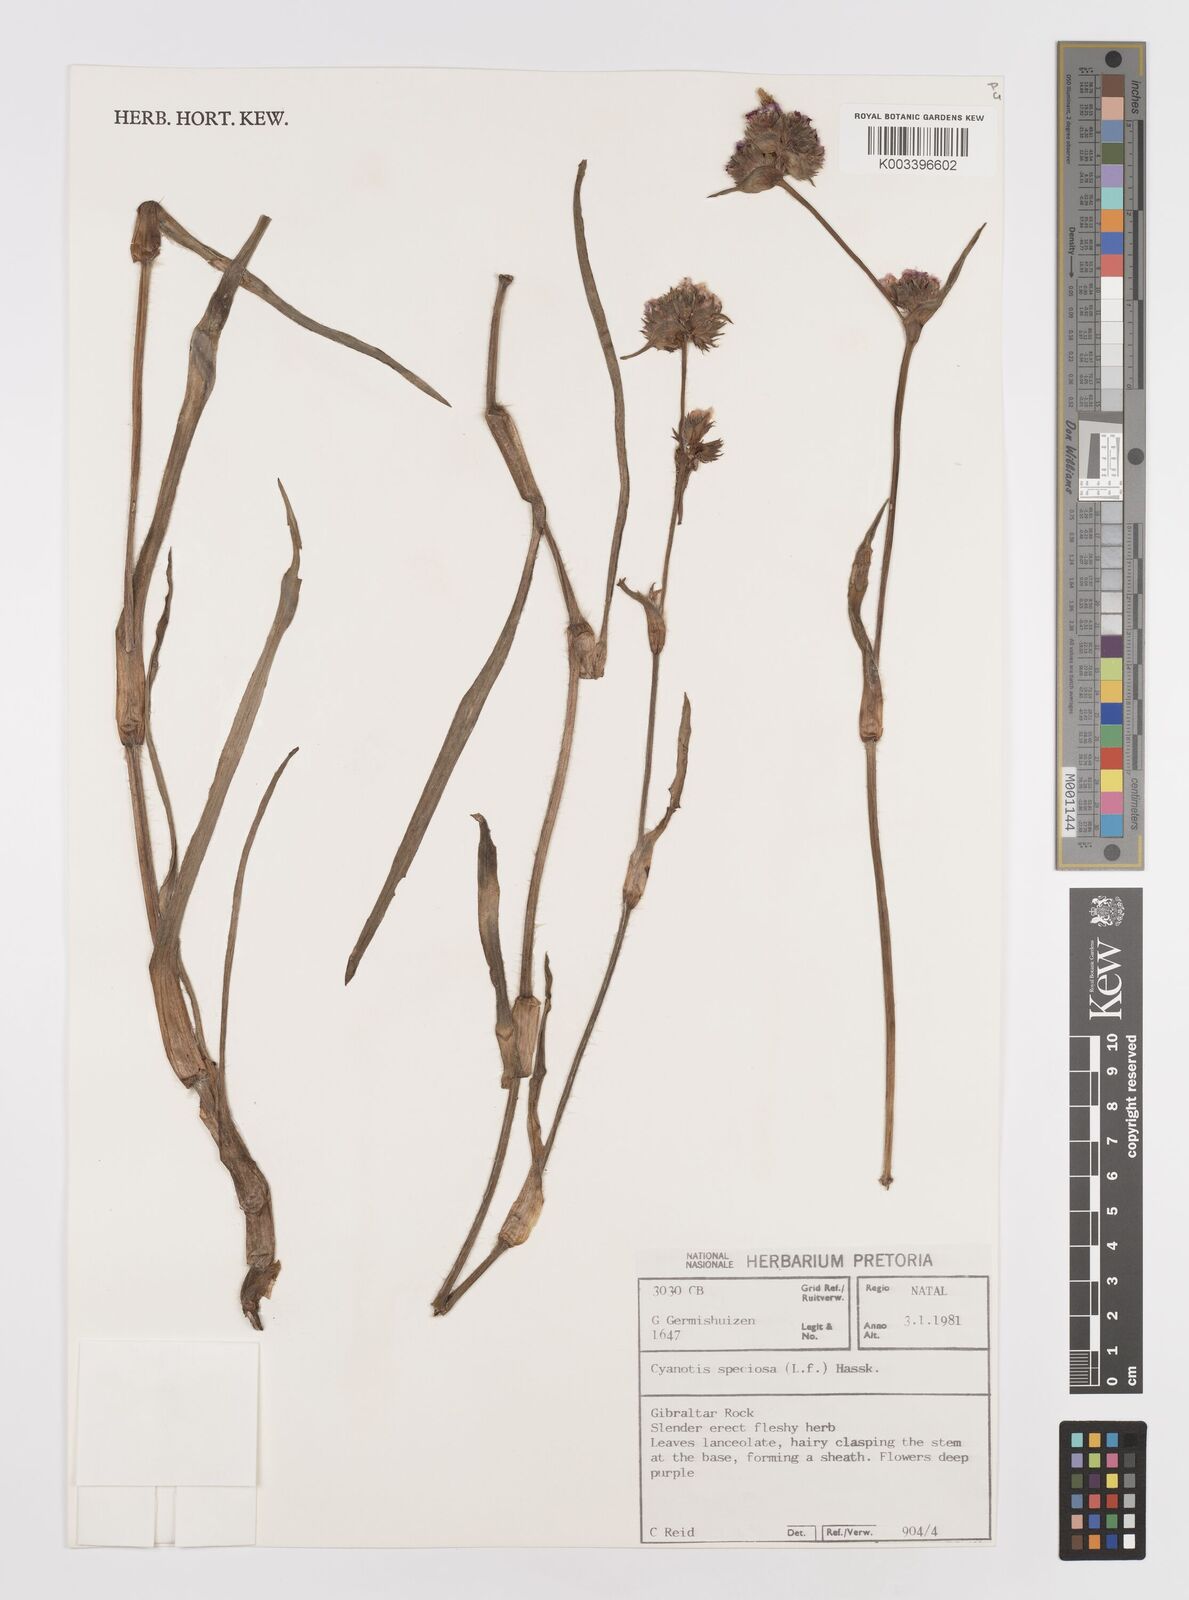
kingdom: Plantae
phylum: Tracheophyta
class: Liliopsida
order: Commelinales
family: Commelinaceae
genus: Cyanotis
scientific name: Cyanotis speciosa
